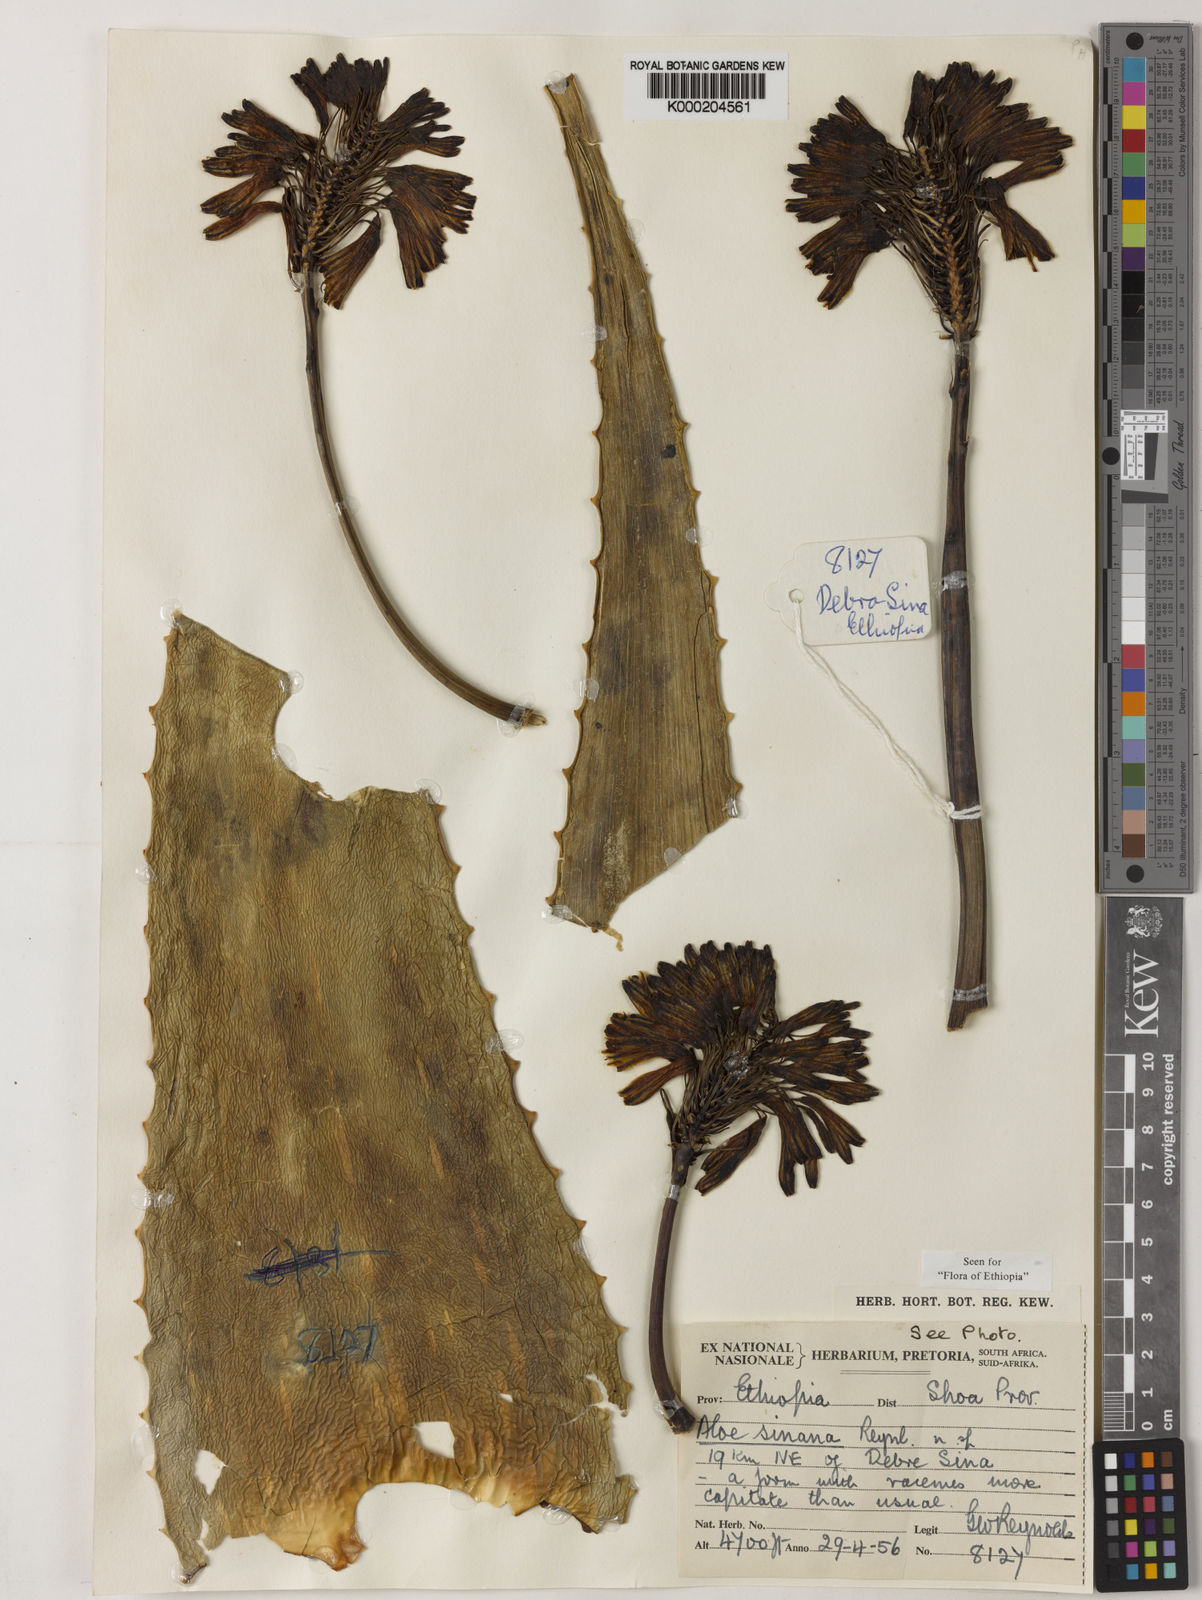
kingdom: Plantae
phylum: Tracheophyta
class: Liliopsida
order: Asparagales
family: Asphodelaceae
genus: Aloe
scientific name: Aloe sinana
